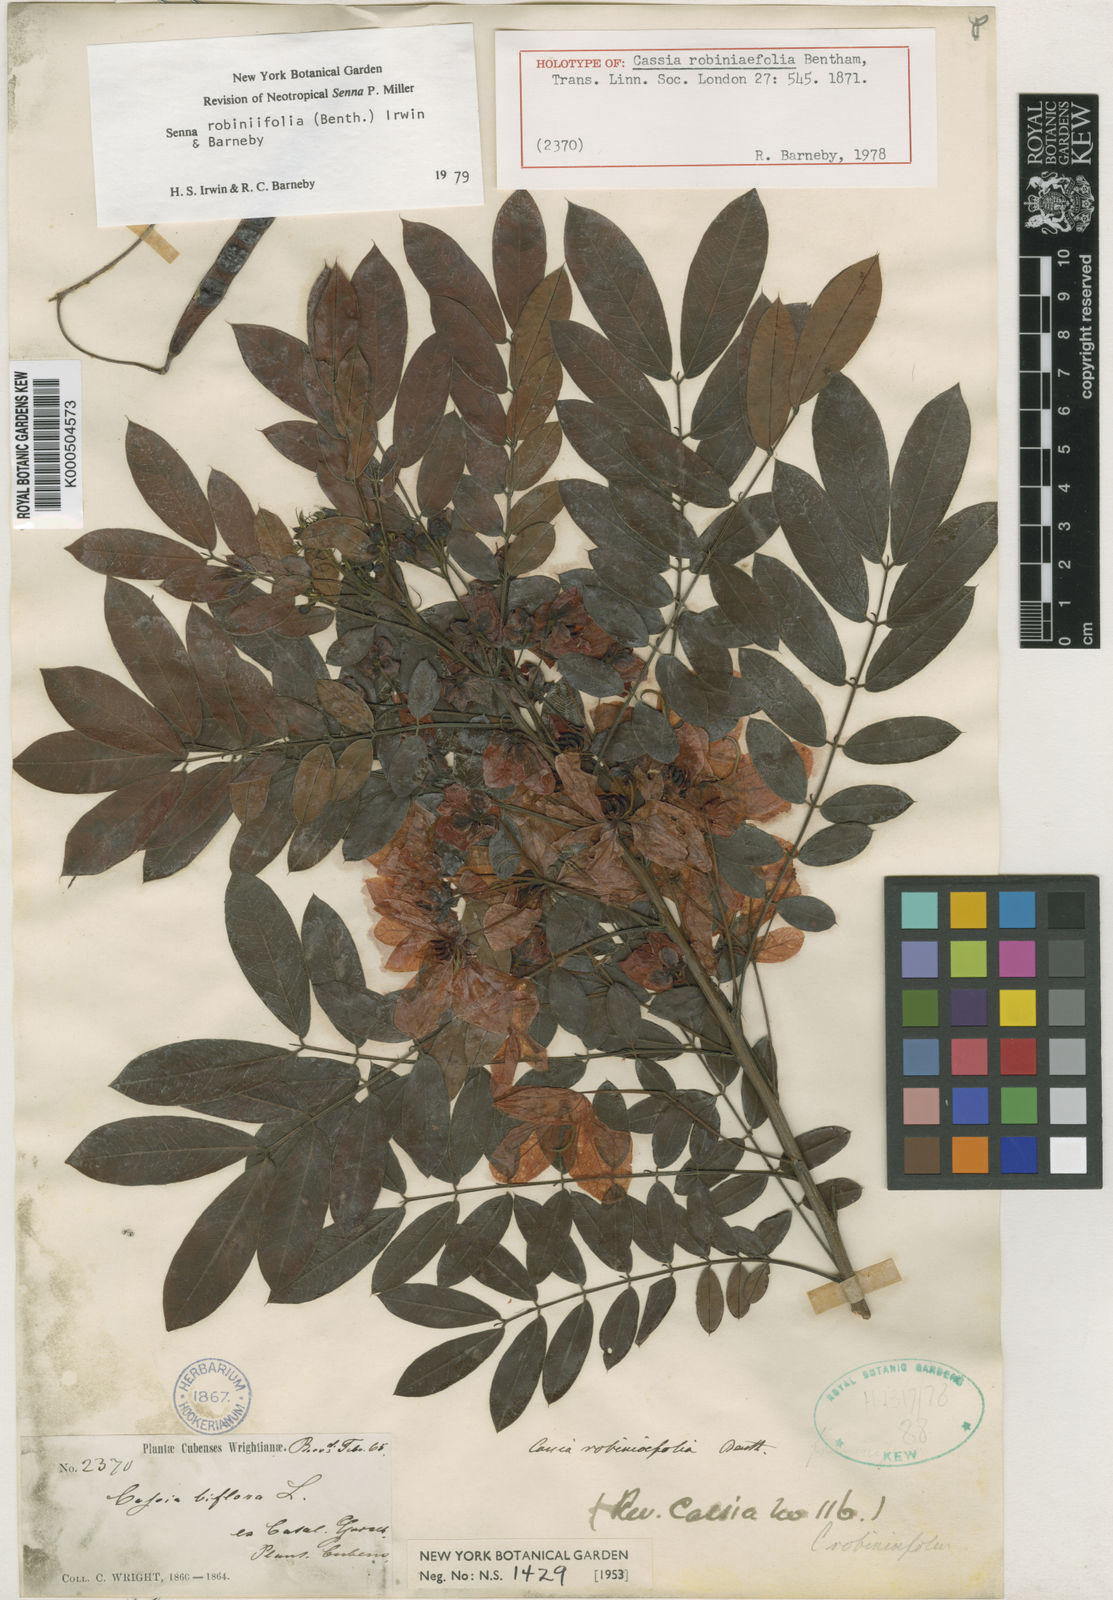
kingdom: Plantae
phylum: Tracheophyta
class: Magnoliopsida
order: Fabales
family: Fabaceae
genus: Senna
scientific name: Senna robiniifolia
